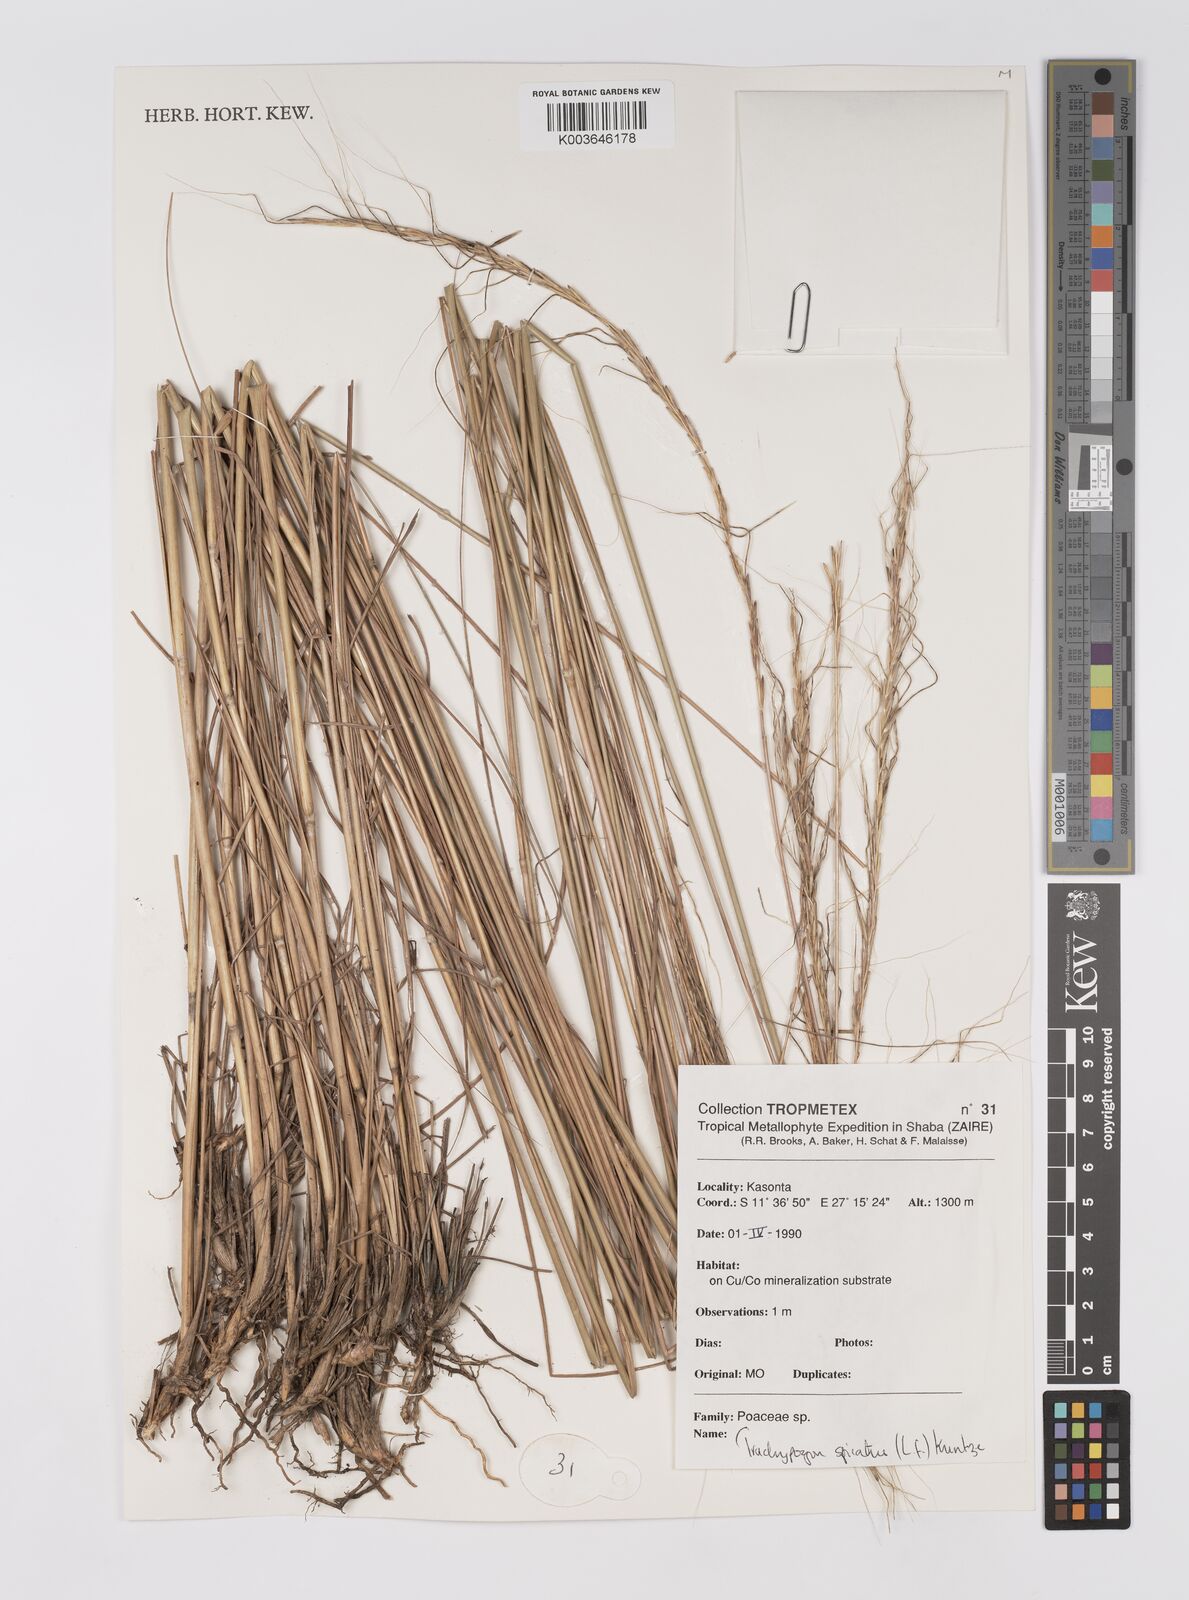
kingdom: Plantae
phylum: Tracheophyta
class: Liliopsida
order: Poales
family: Poaceae
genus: Trachypogon
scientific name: Trachypogon spicatus
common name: Crinkle-awn
